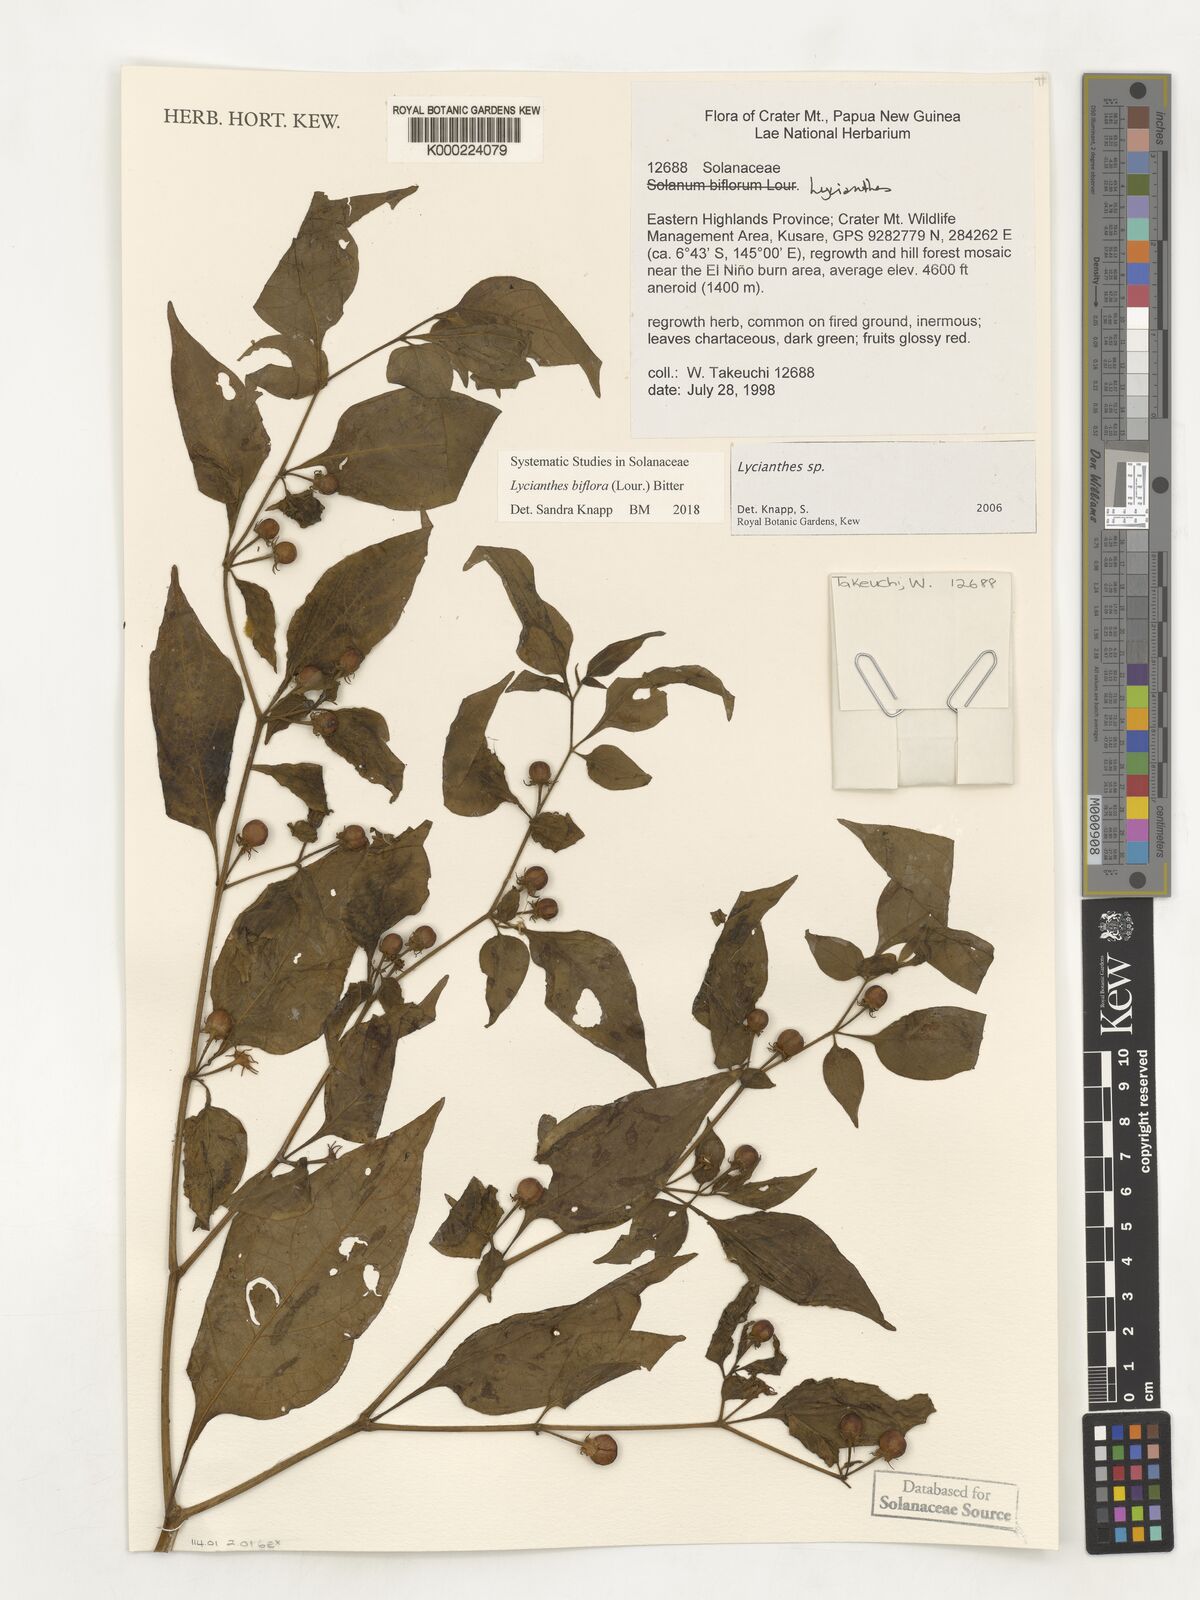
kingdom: Plantae
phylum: Tracheophyta
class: Magnoliopsida
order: Solanales
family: Solanaceae
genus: Lycianthes
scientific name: Lycianthes
